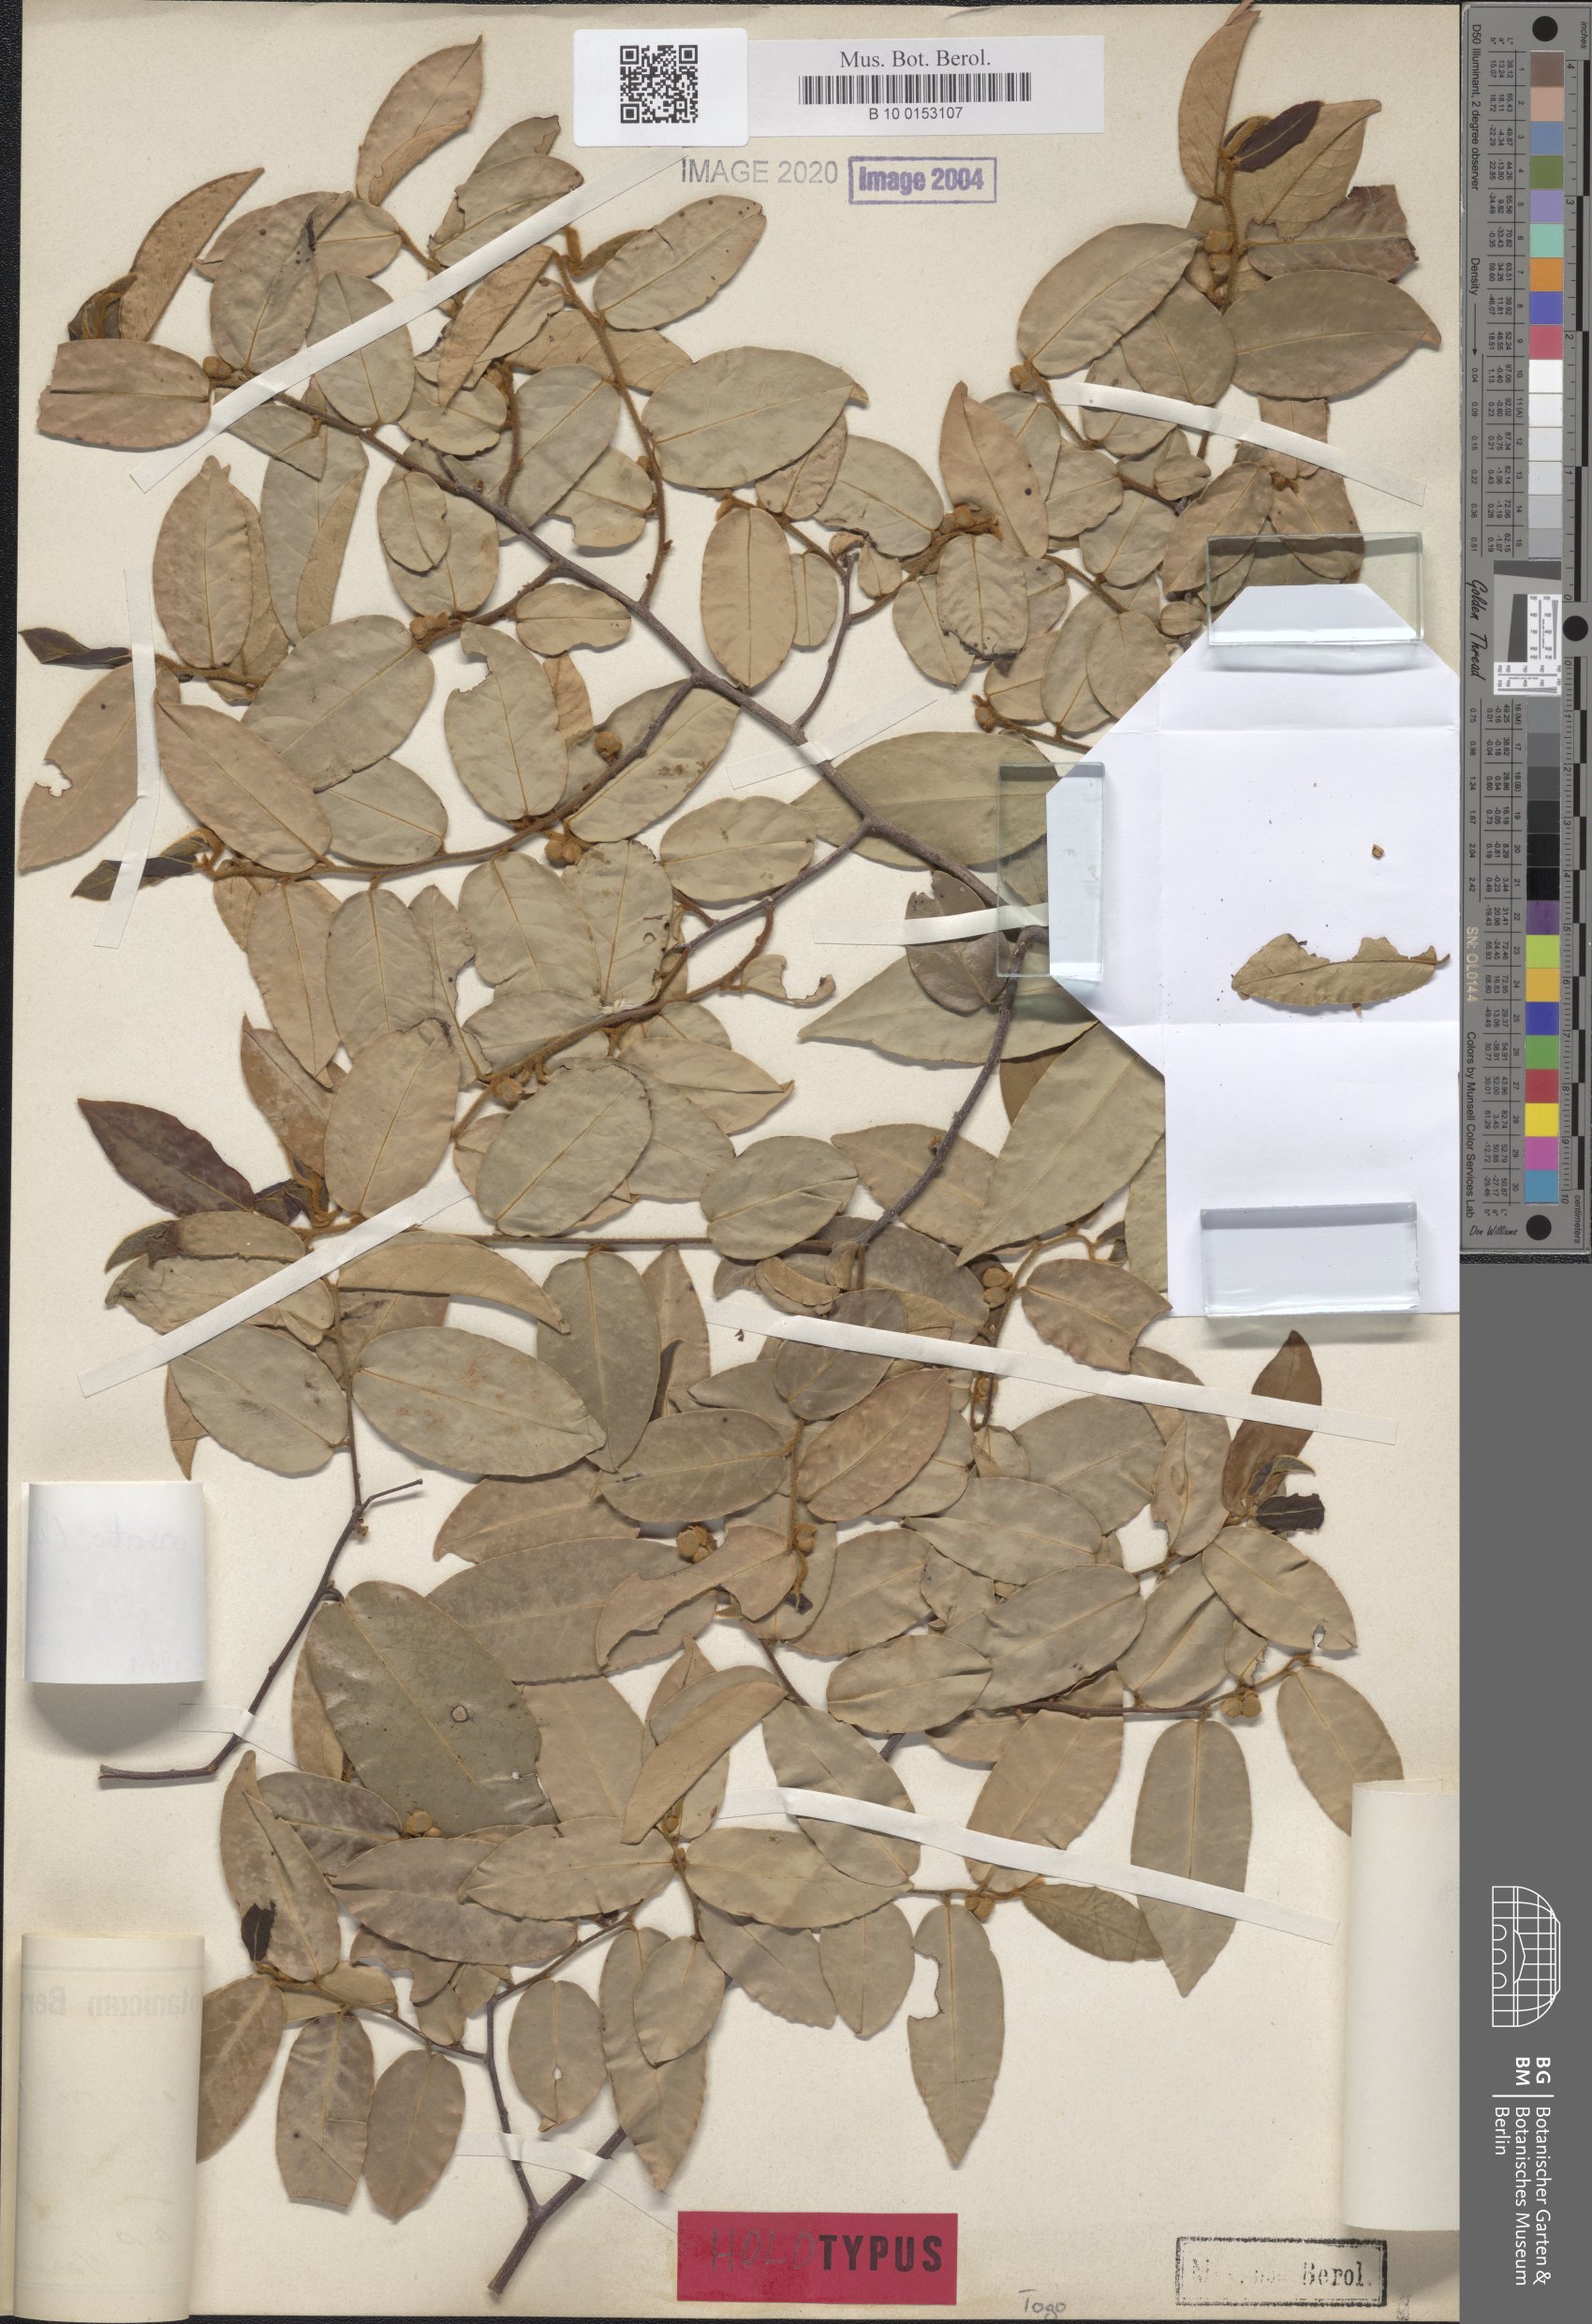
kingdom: Plantae
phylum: Tracheophyta
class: Magnoliopsida
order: Magnoliales
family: Annonaceae
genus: Uvaria
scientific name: Uvaria ovata
